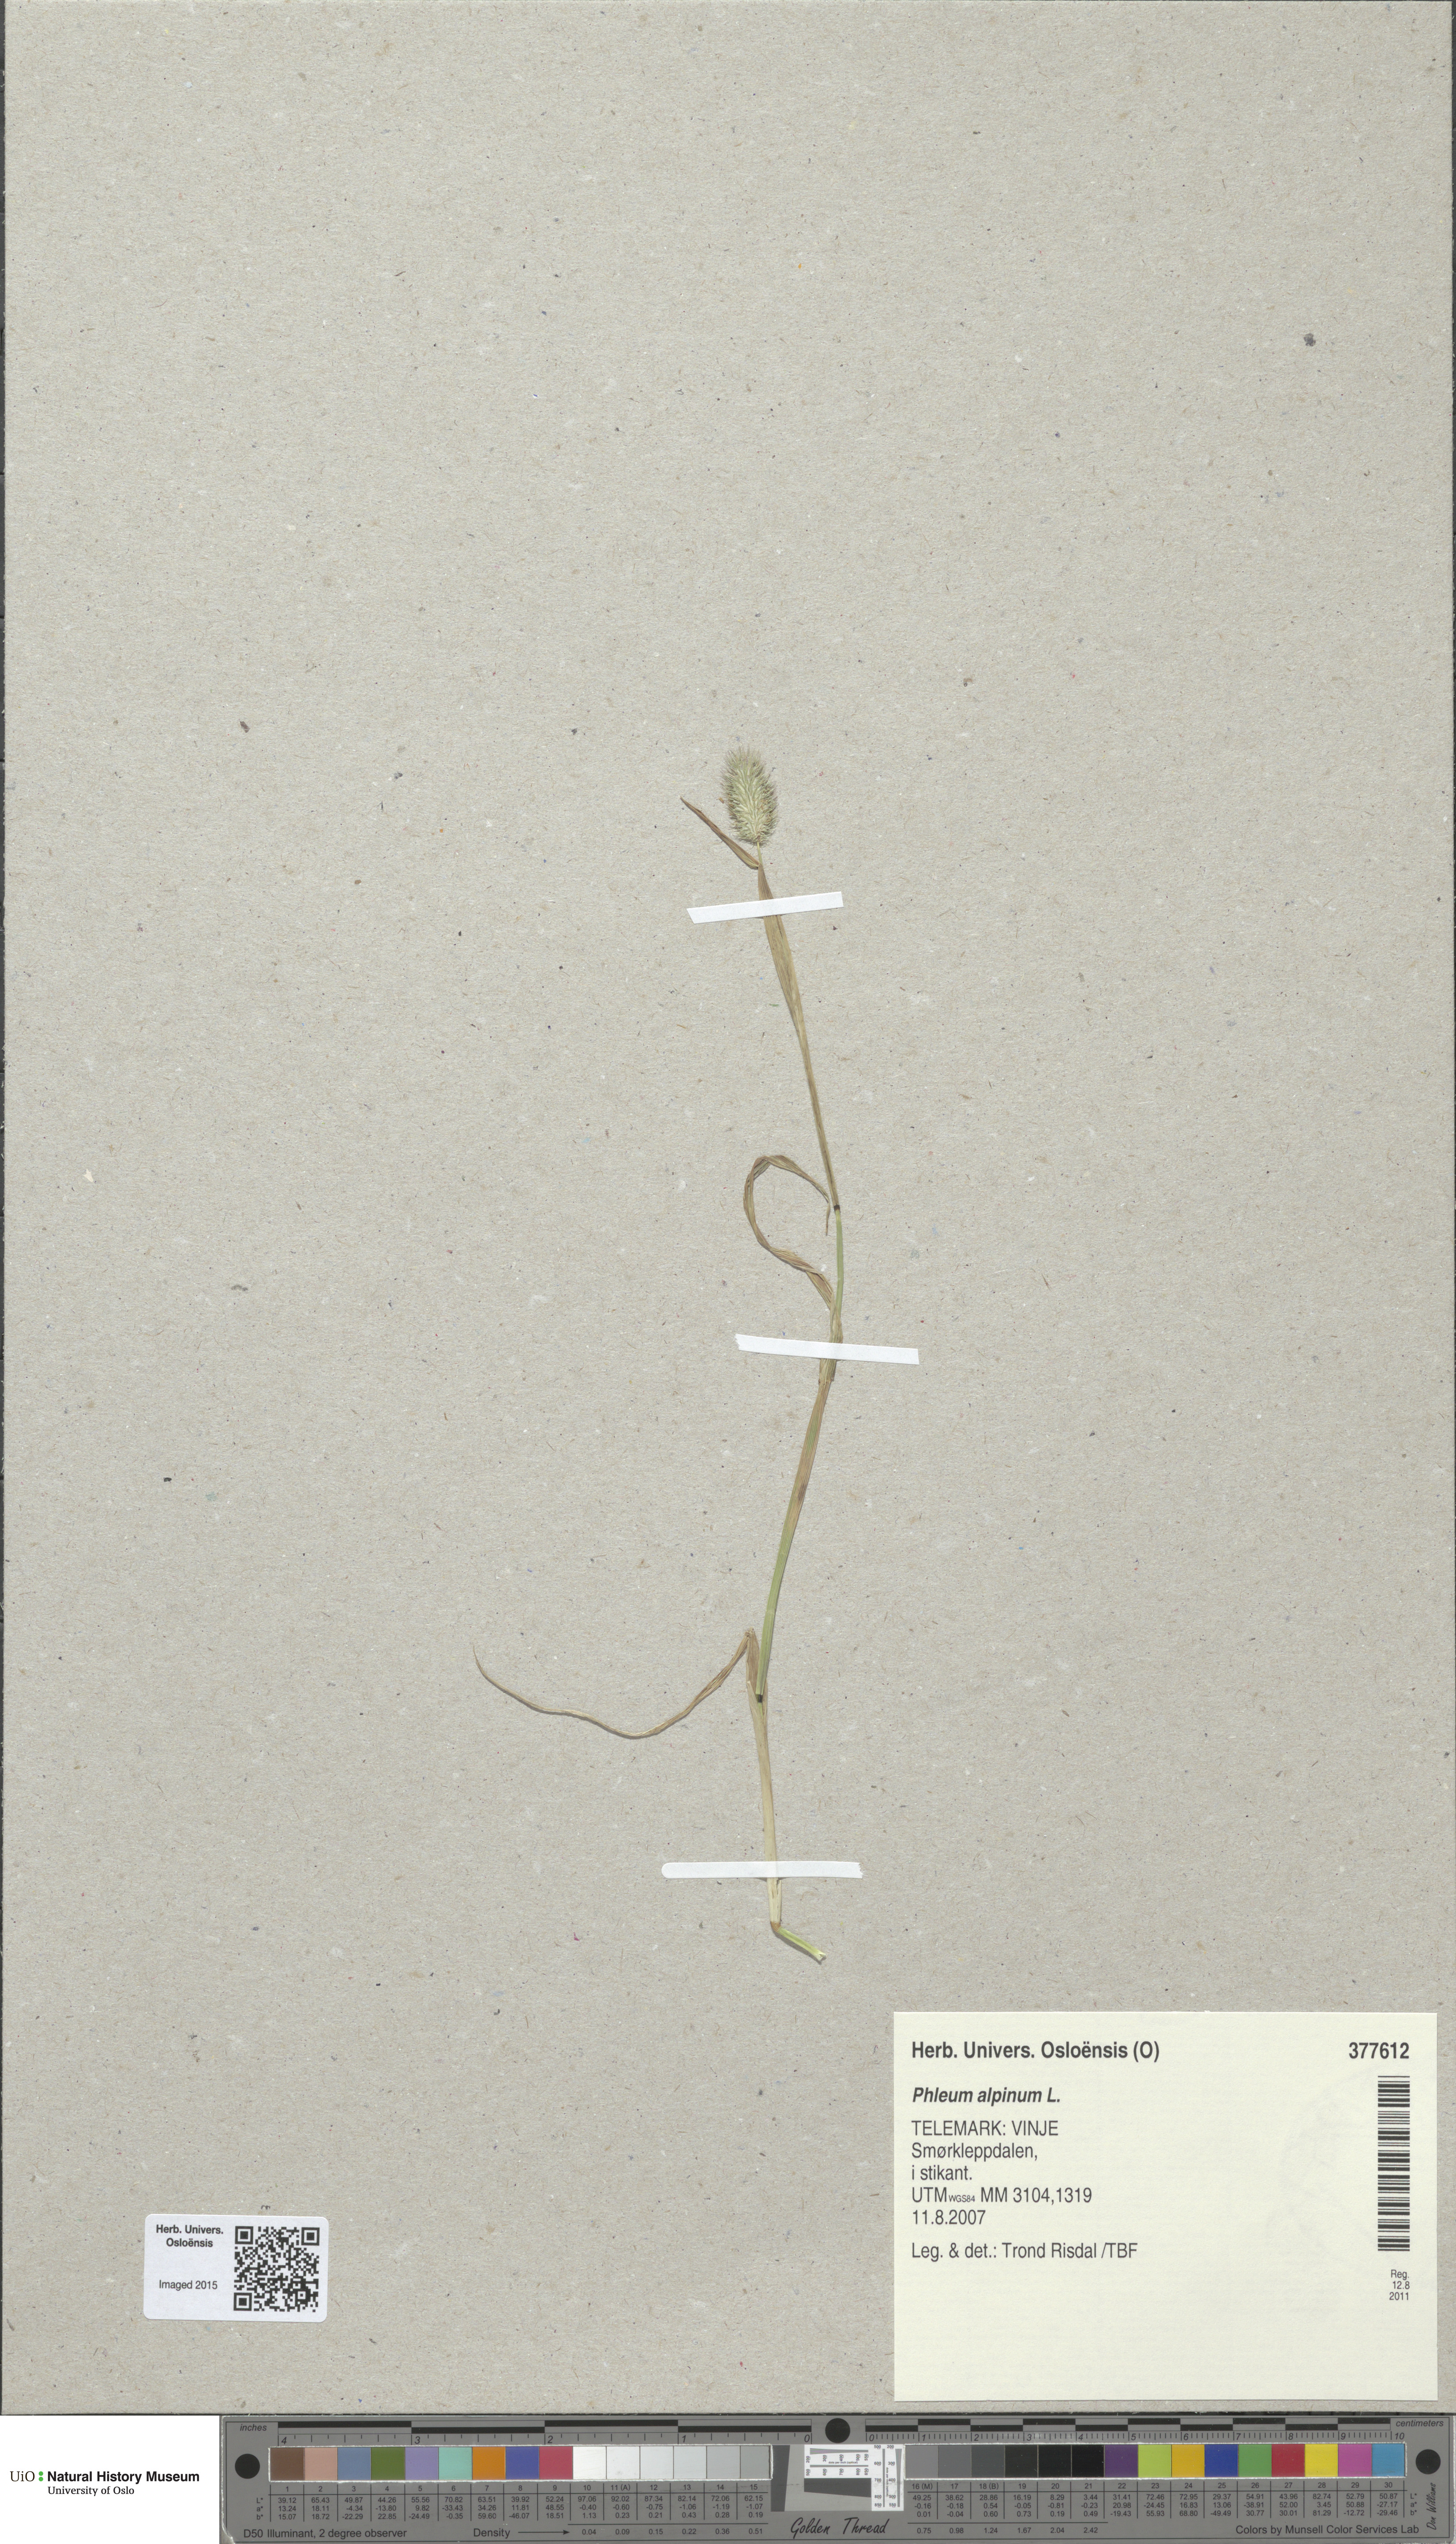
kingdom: Plantae
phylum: Tracheophyta
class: Liliopsida
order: Poales
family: Poaceae
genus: Phleum
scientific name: Phleum alpinum
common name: Alpine cat's-tail
